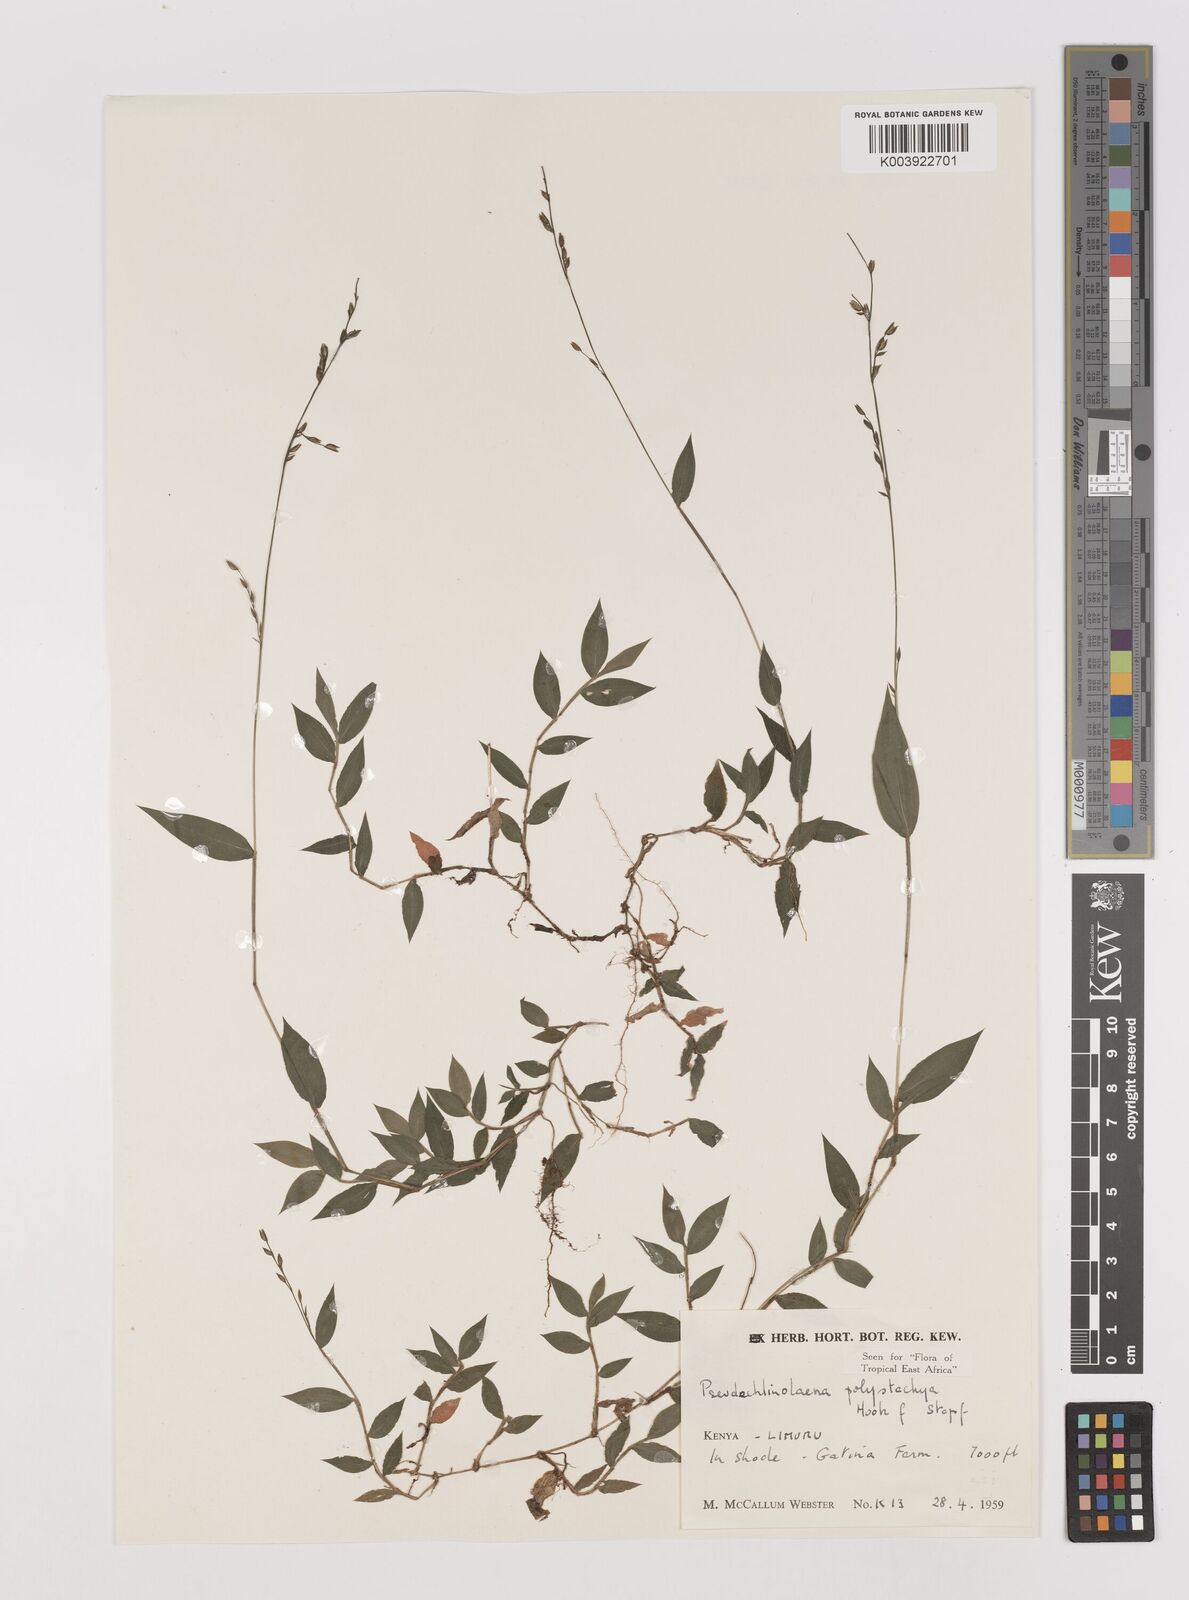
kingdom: Plantae
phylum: Tracheophyta
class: Liliopsida
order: Poales
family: Poaceae
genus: Pseudechinolaena
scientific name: Pseudechinolaena polystachya
